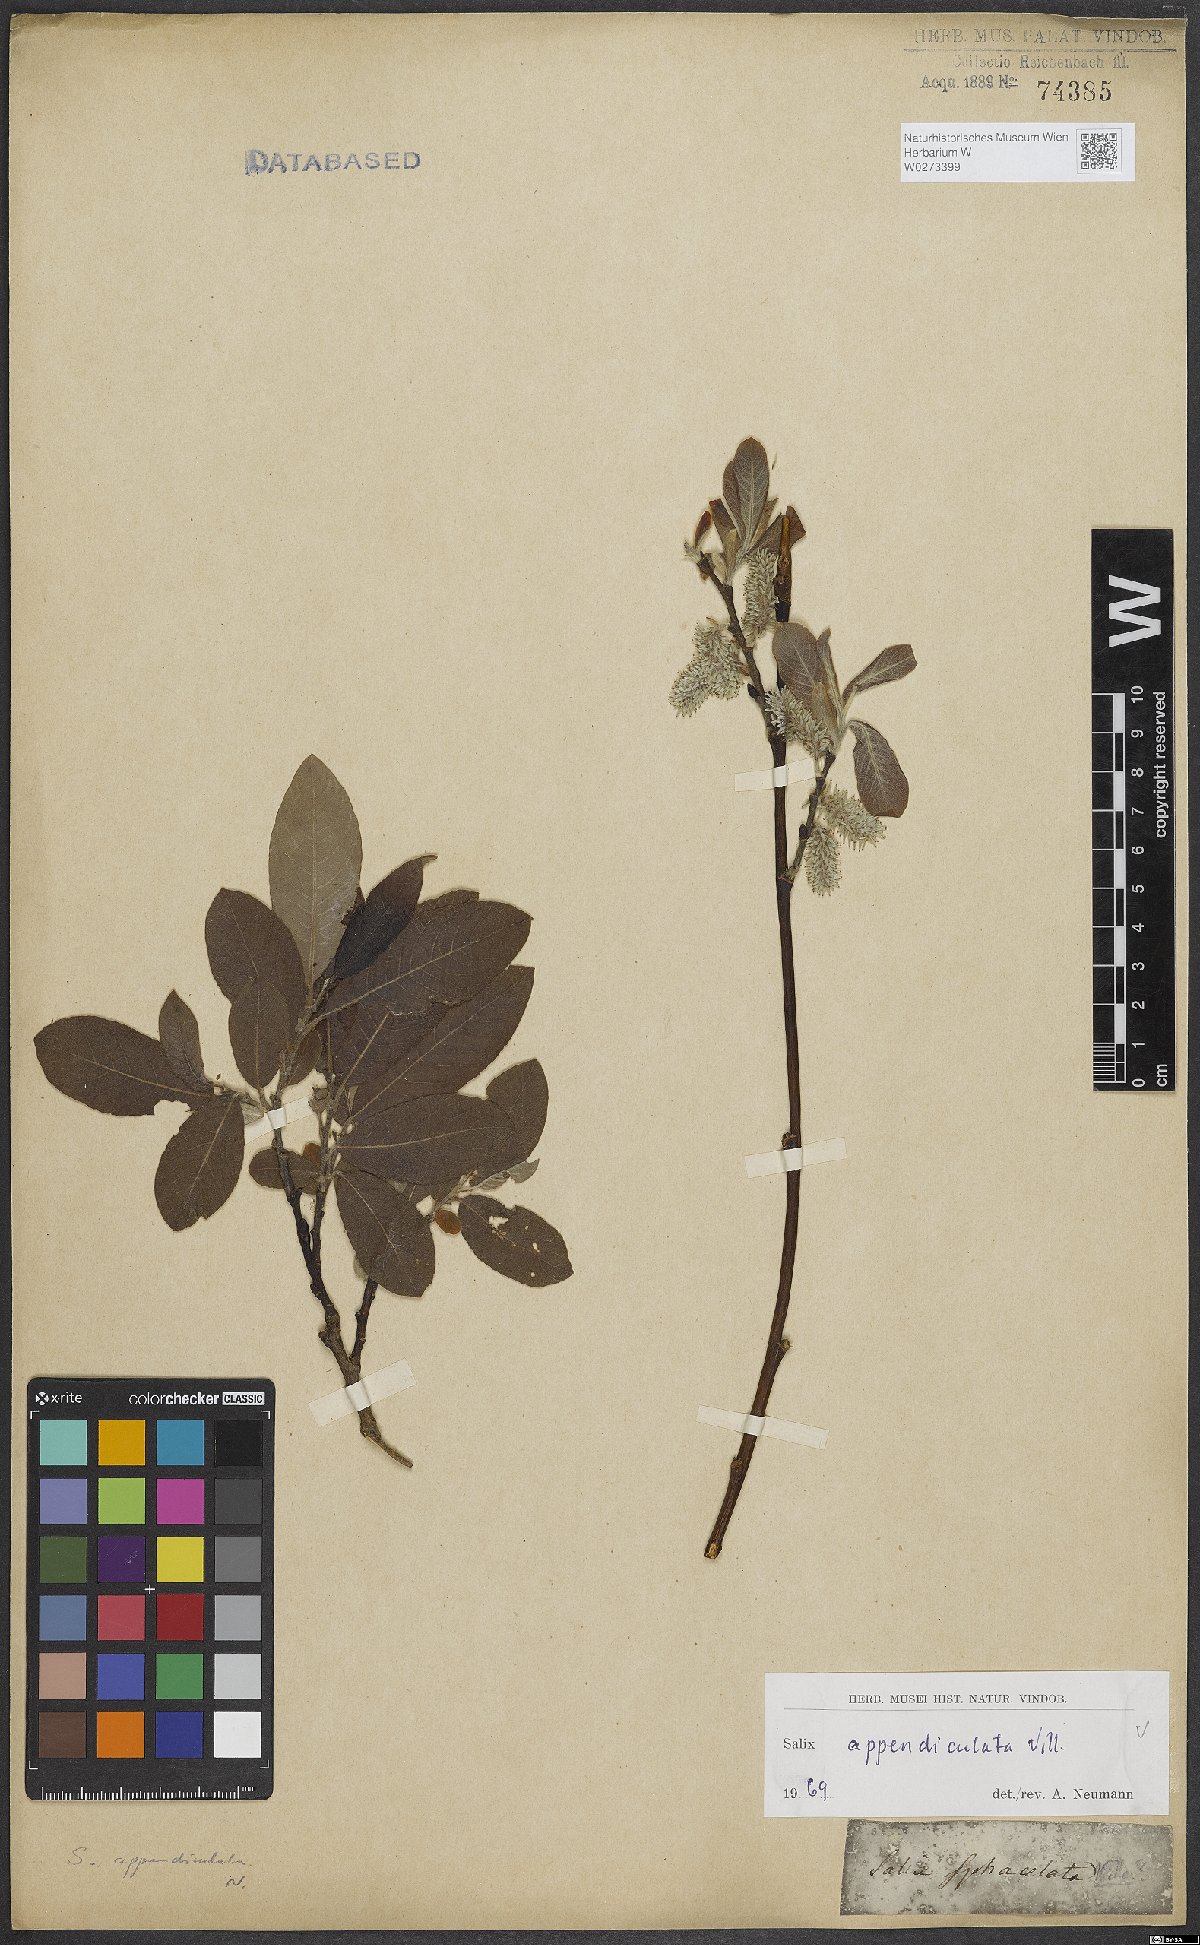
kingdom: Plantae
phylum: Tracheophyta
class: Magnoliopsida
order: Malpighiales
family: Salicaceae
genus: Salix
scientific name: Salix appendiculata
